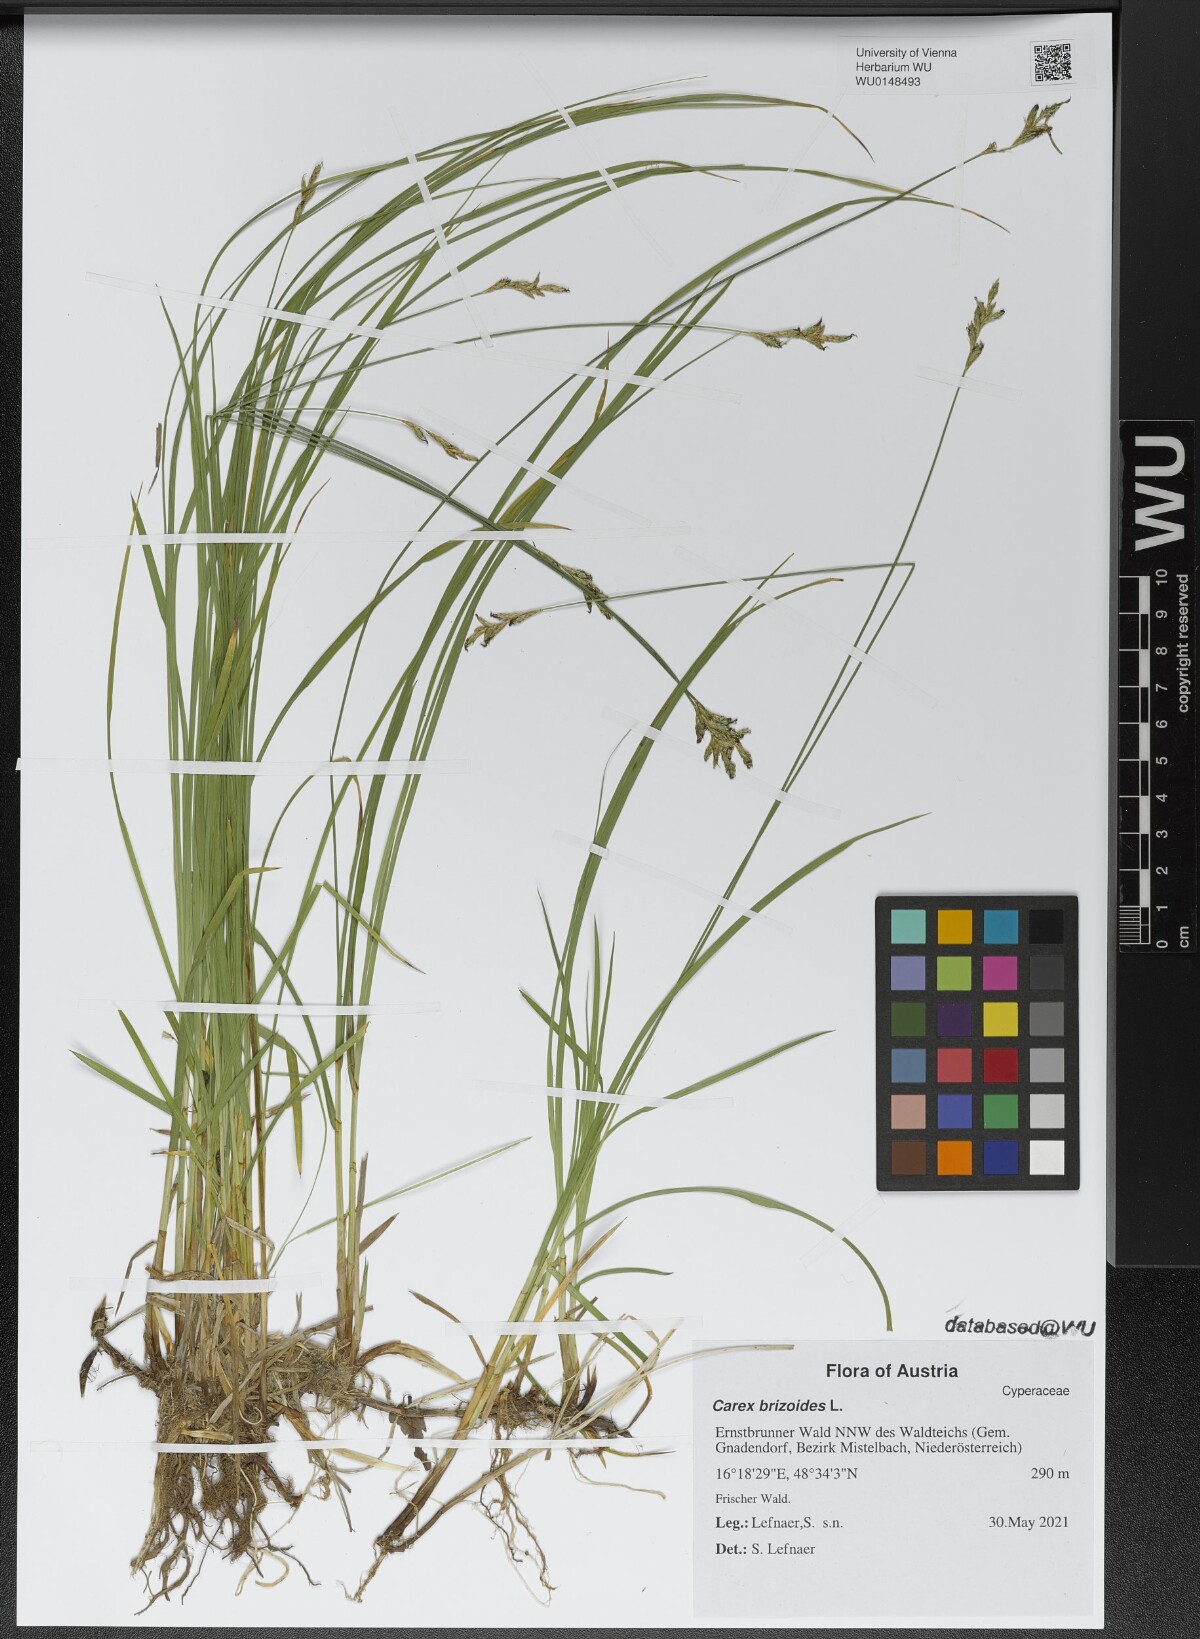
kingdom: Plantae
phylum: Tracheophyta
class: Liliopsida
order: Poales
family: Cyperaceae
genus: Carex
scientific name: Carex brizoides
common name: Quaking-grass sedge
